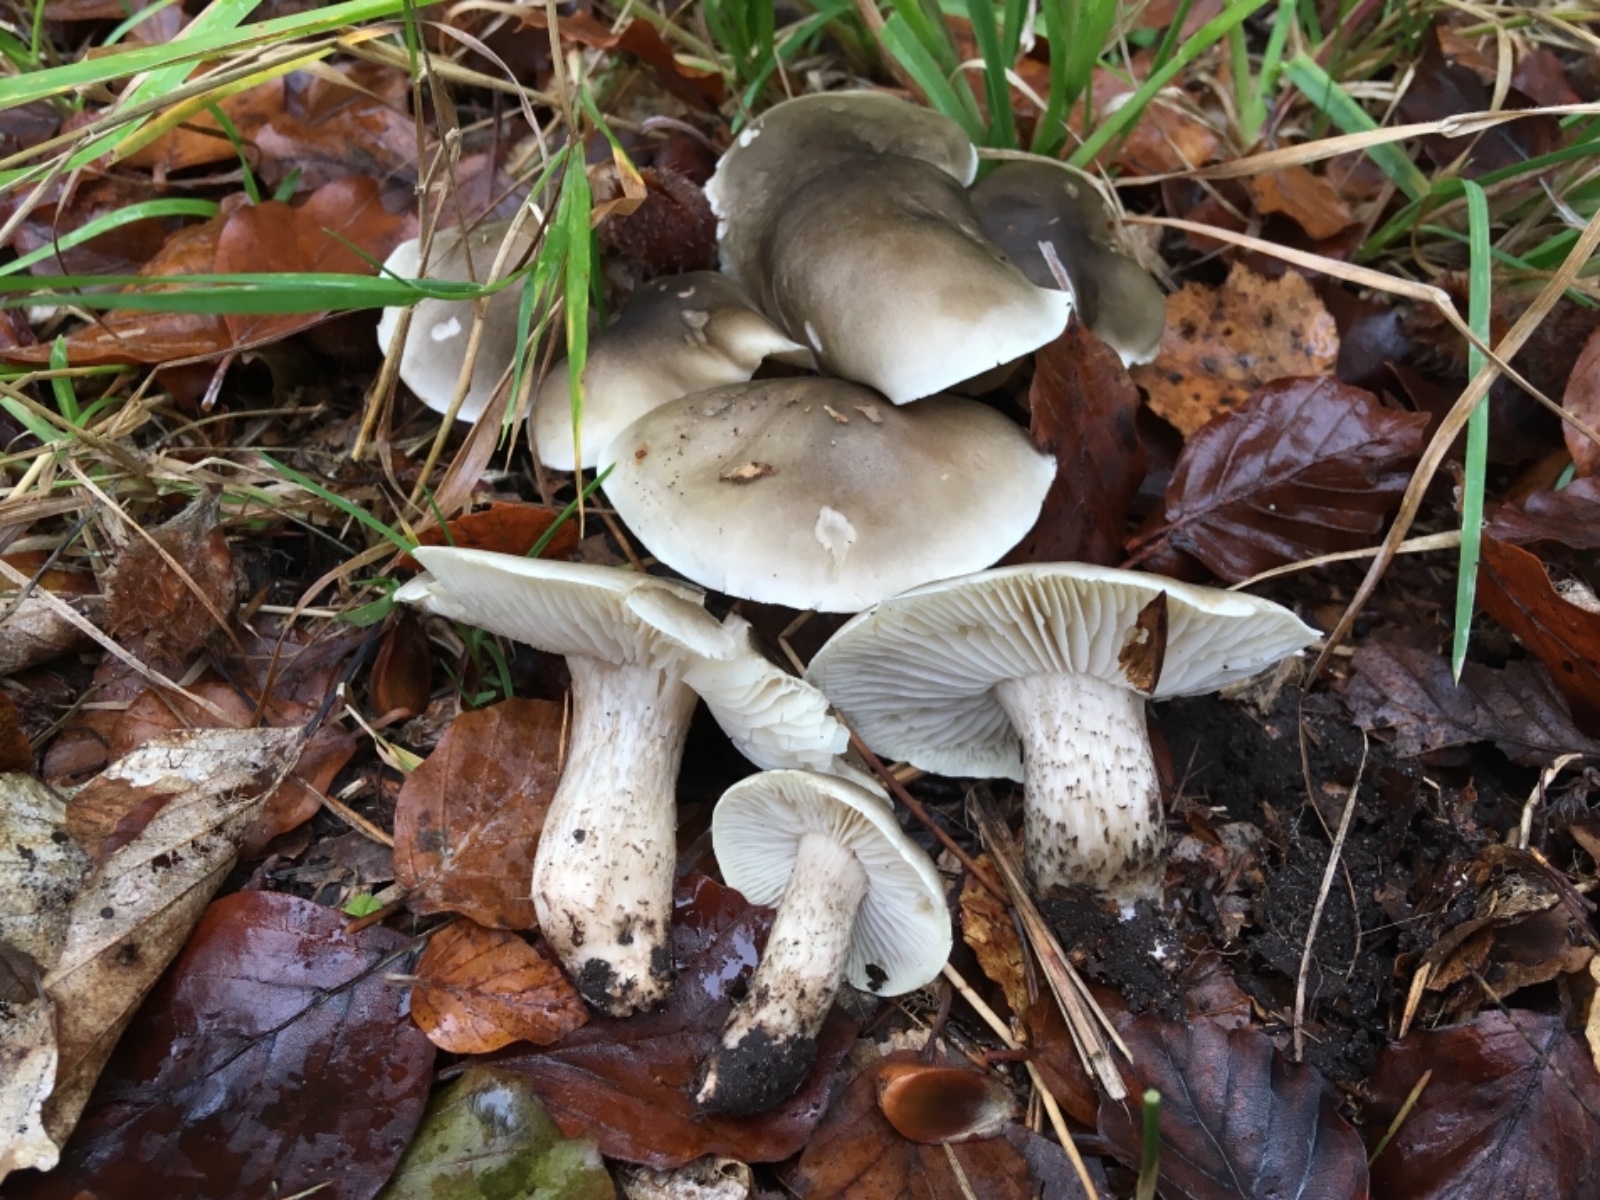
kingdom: Fungi
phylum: Basidiomycota
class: Agaricomycetes
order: Agaricales
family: Tricholomataceae
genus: Tricholoma
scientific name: Tricholoma saponaceum
